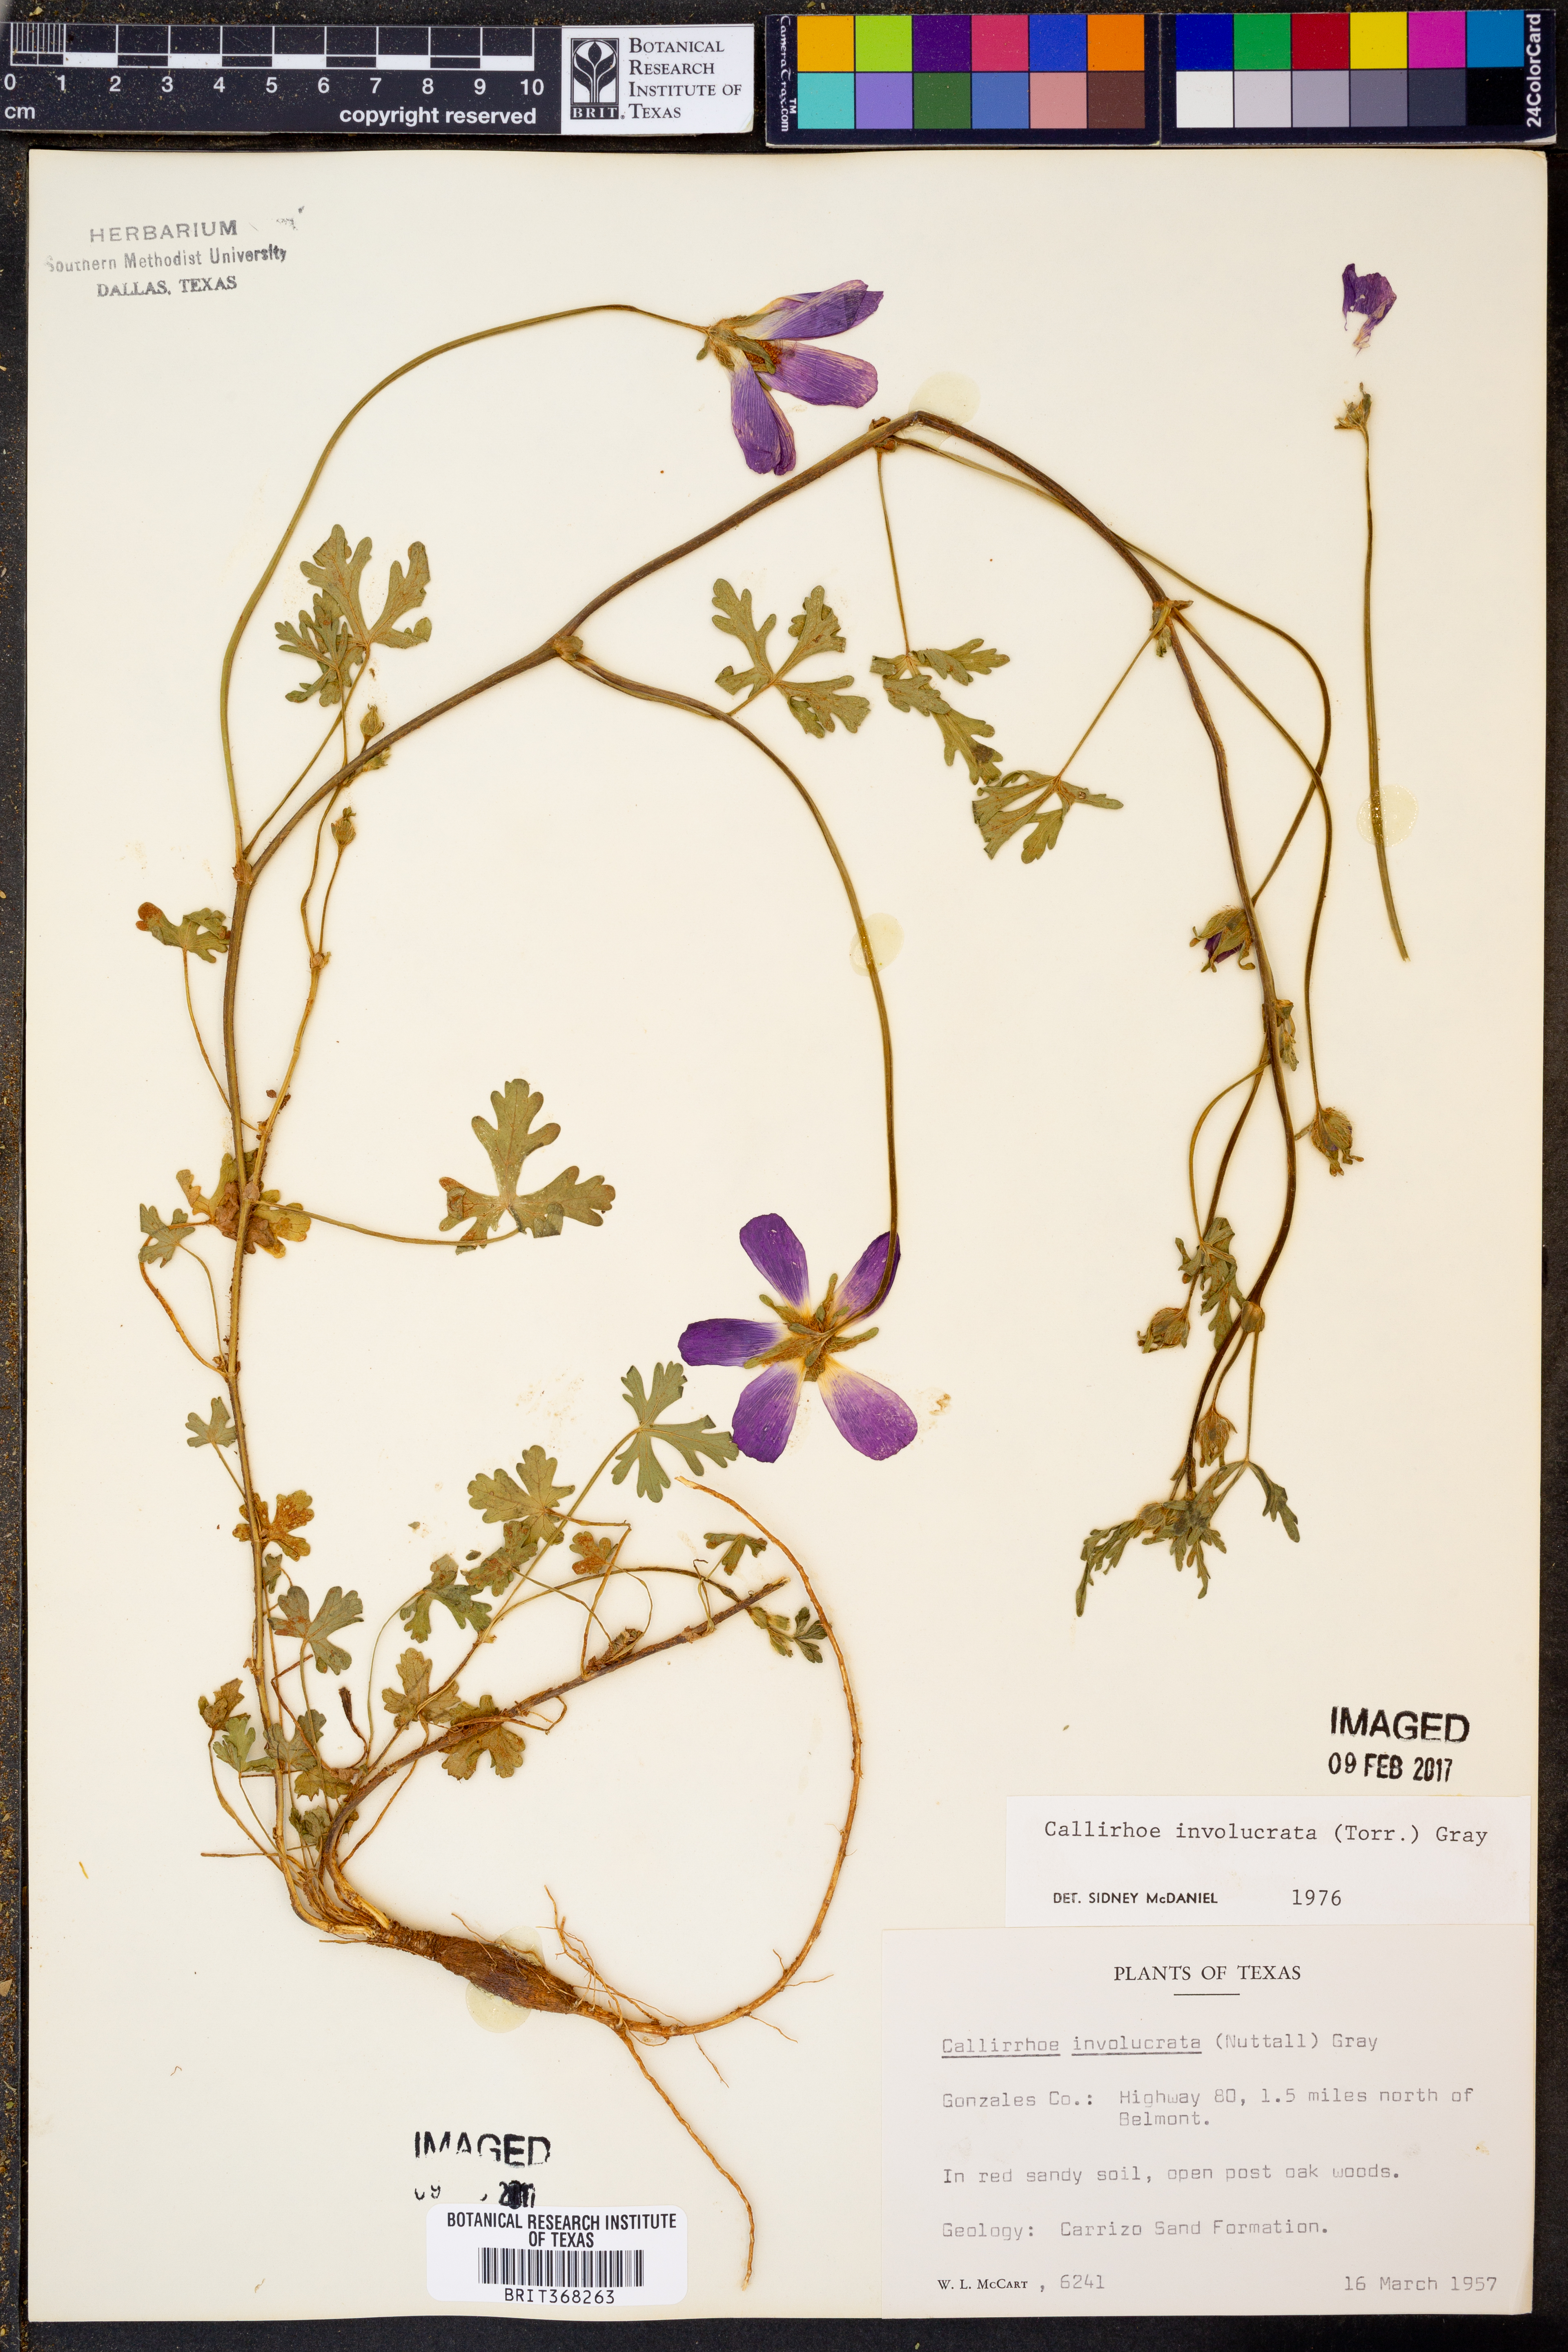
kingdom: Plantae
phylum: Tracheophyta
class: Magnoliopsida
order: Malvales
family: Malvaceae
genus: Callirhoe
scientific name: Callirhoe involucrata
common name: Purple poppy-mallow
